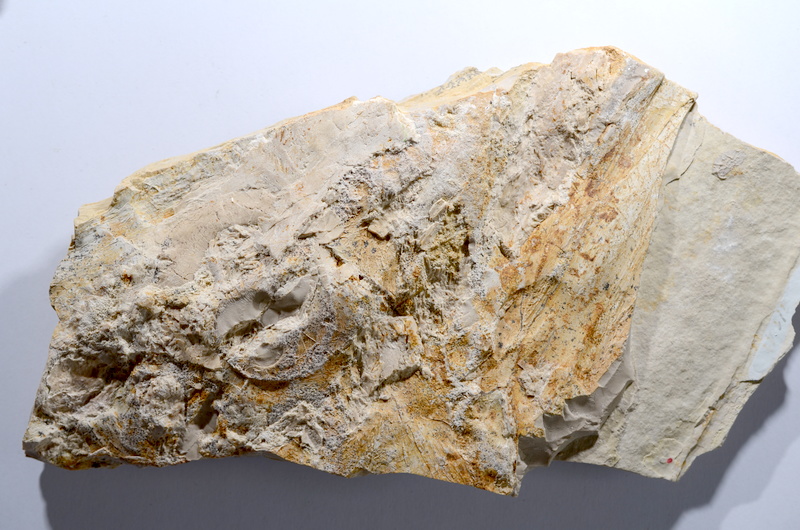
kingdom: Animalia
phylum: Chordata
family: Pachycormidae
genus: Asthenocormus
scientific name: Asthenocormus titanius
